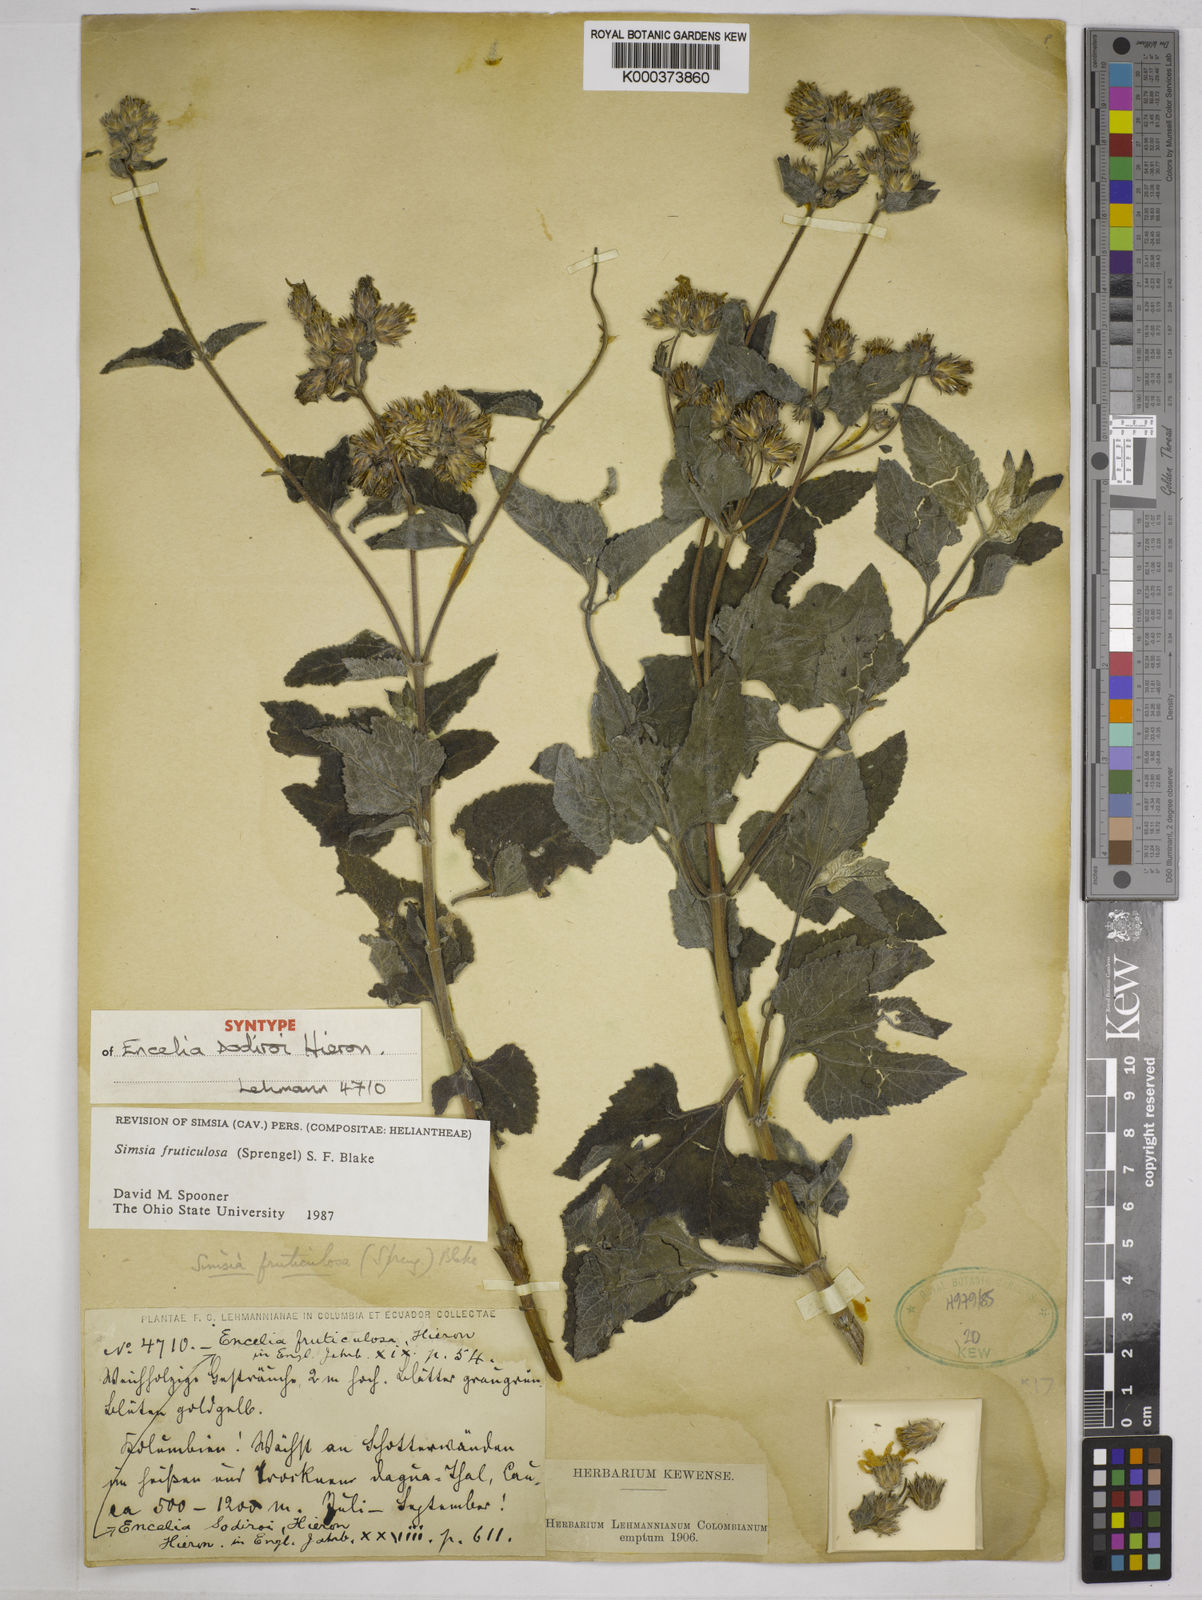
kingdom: Plantae
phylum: Tracheophyta
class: Magnoliopsida
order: Asterales
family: Asteraceae
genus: Simsia
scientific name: Simsia fruticulosa
